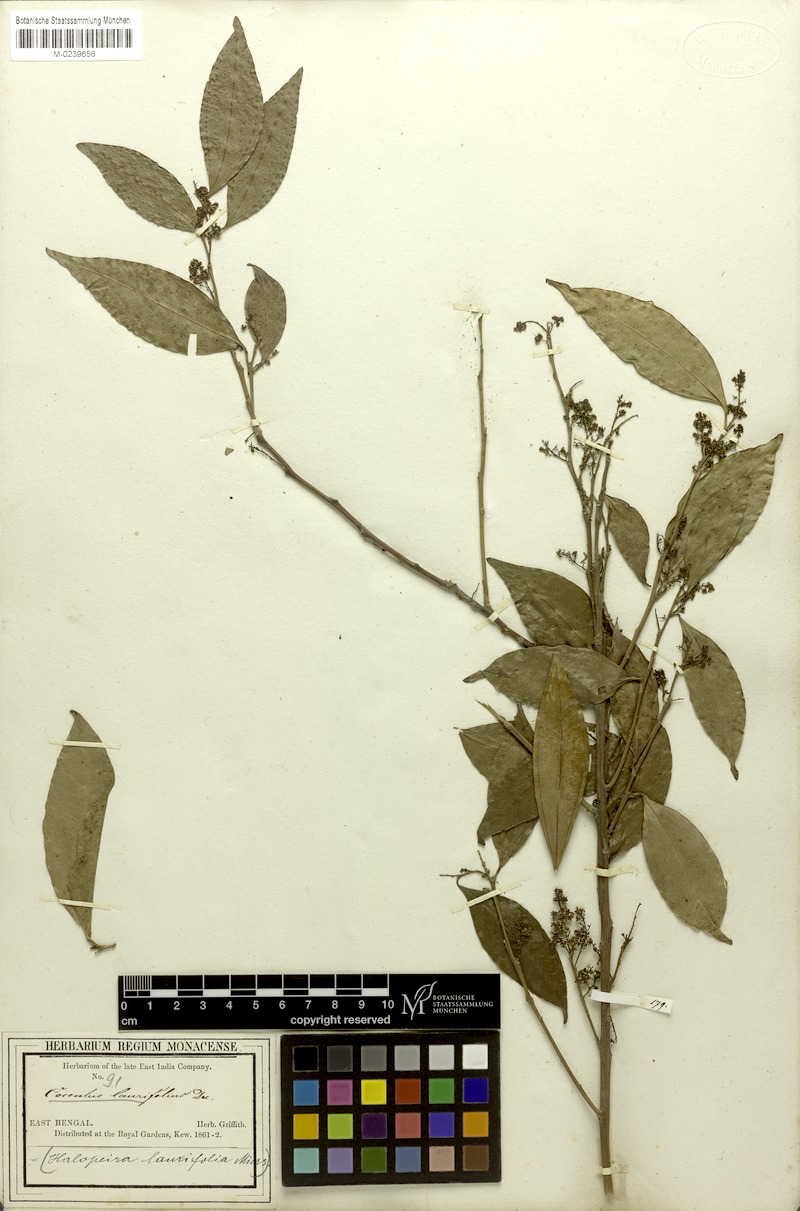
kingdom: Plantae
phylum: Tracheophyta
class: Magnoliopsida
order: Ranunculales
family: Menispermaceae
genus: Cocculus
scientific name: Cocculus laurifolius
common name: Laurel-leaf snailseed
